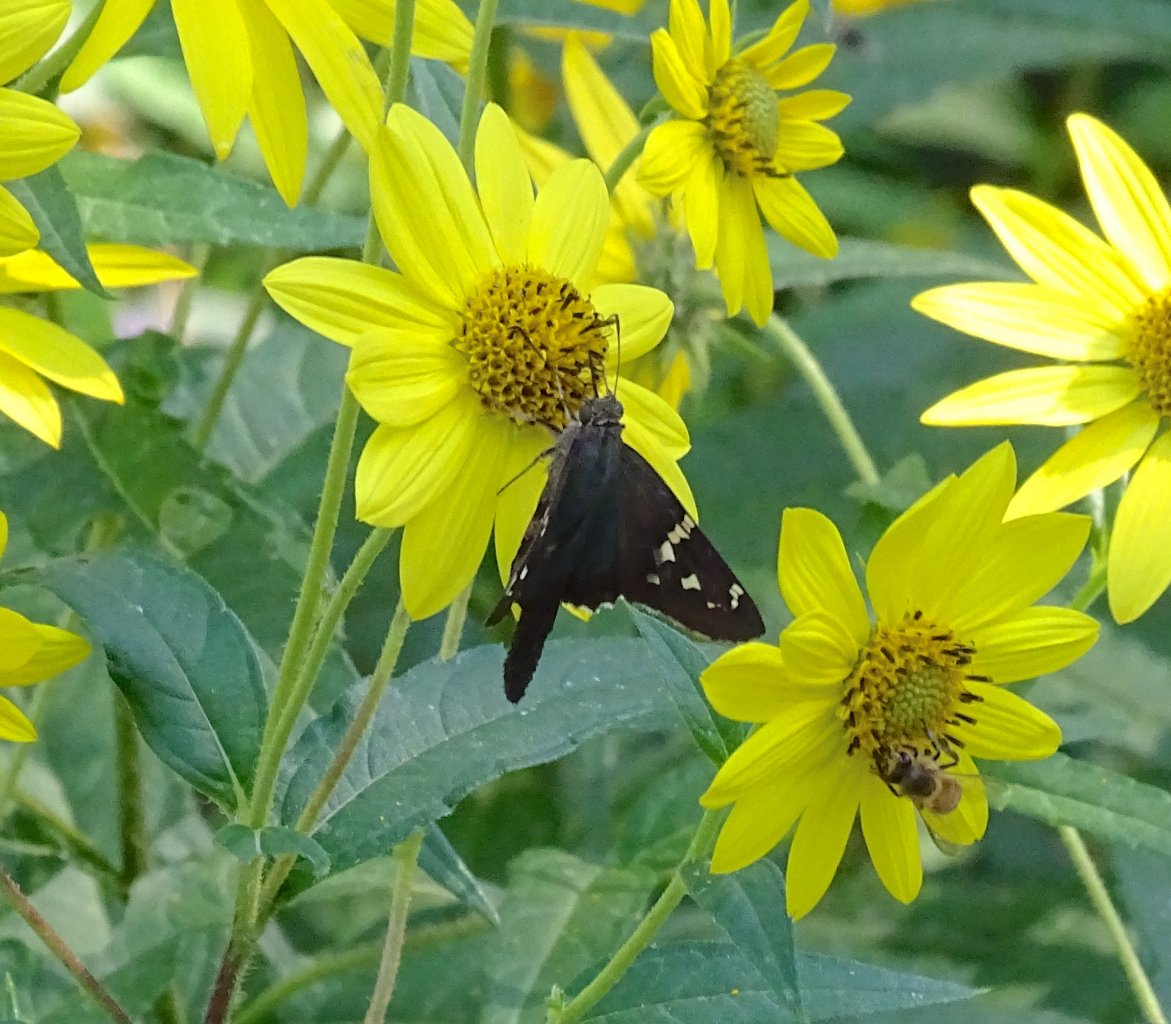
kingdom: Animalia
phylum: Arthropoda
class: Insecta
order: Lepidoptera
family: Hesperiidae
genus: Urbanus
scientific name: Urbanus proteus
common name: Long-tailed Skipper
